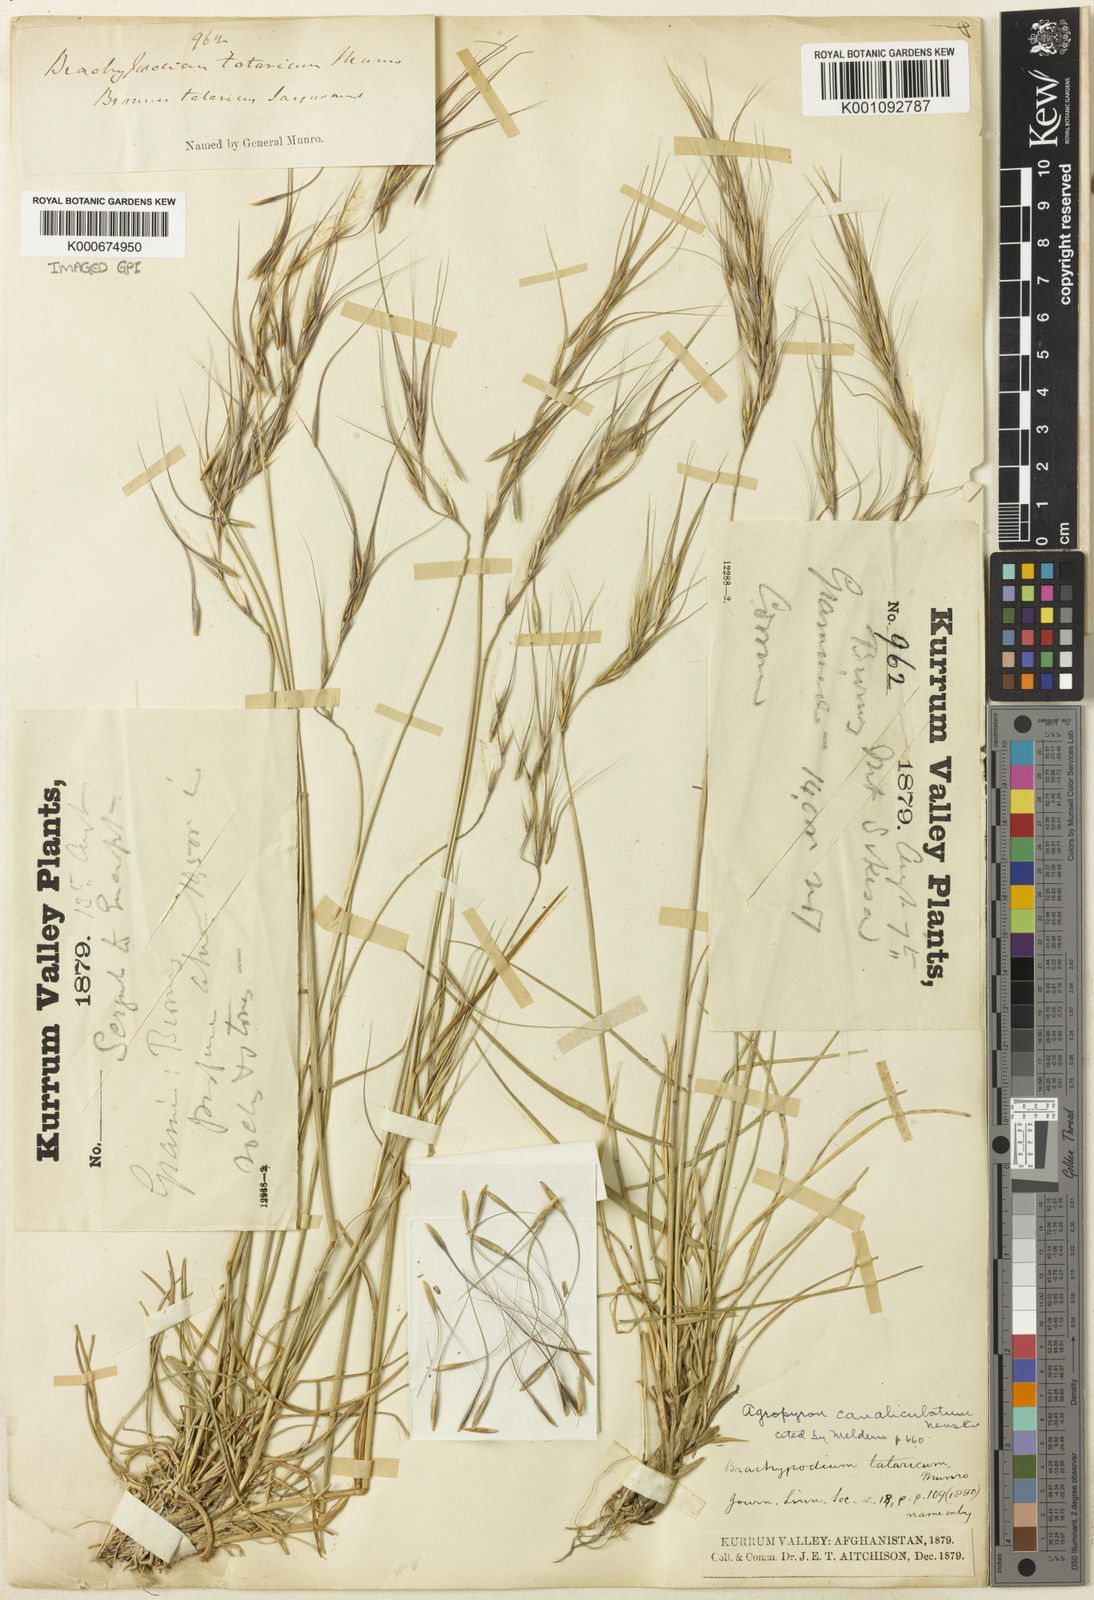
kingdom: Plantae
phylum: Tracheophyta
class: Liliopsida
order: Poales
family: Poaceae
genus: Elymus
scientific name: Elymus longearistatus
